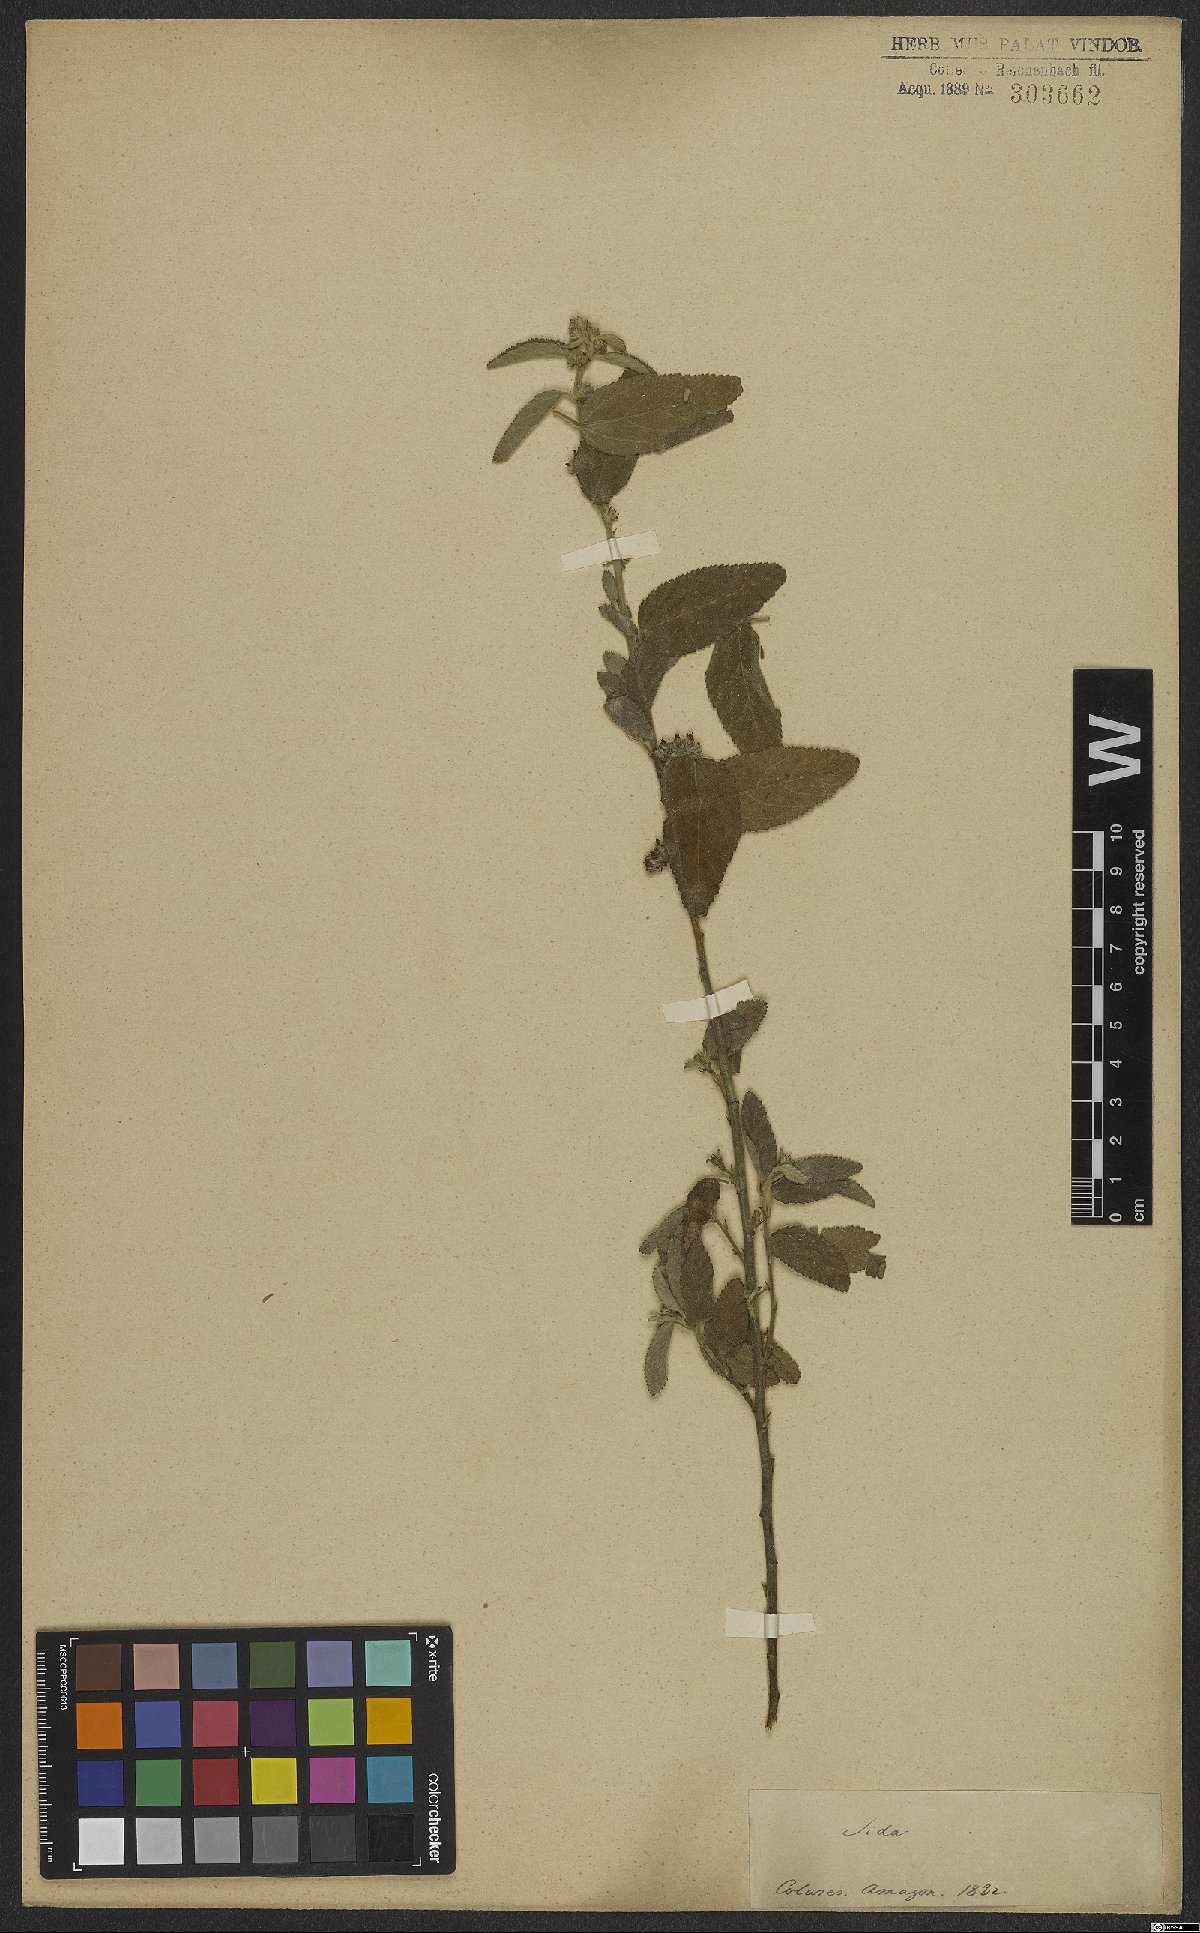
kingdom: Plantae
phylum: Tracheophyta
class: Magnoliopsida
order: Malvales
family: Malvaceae
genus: Sida
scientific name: Sida
